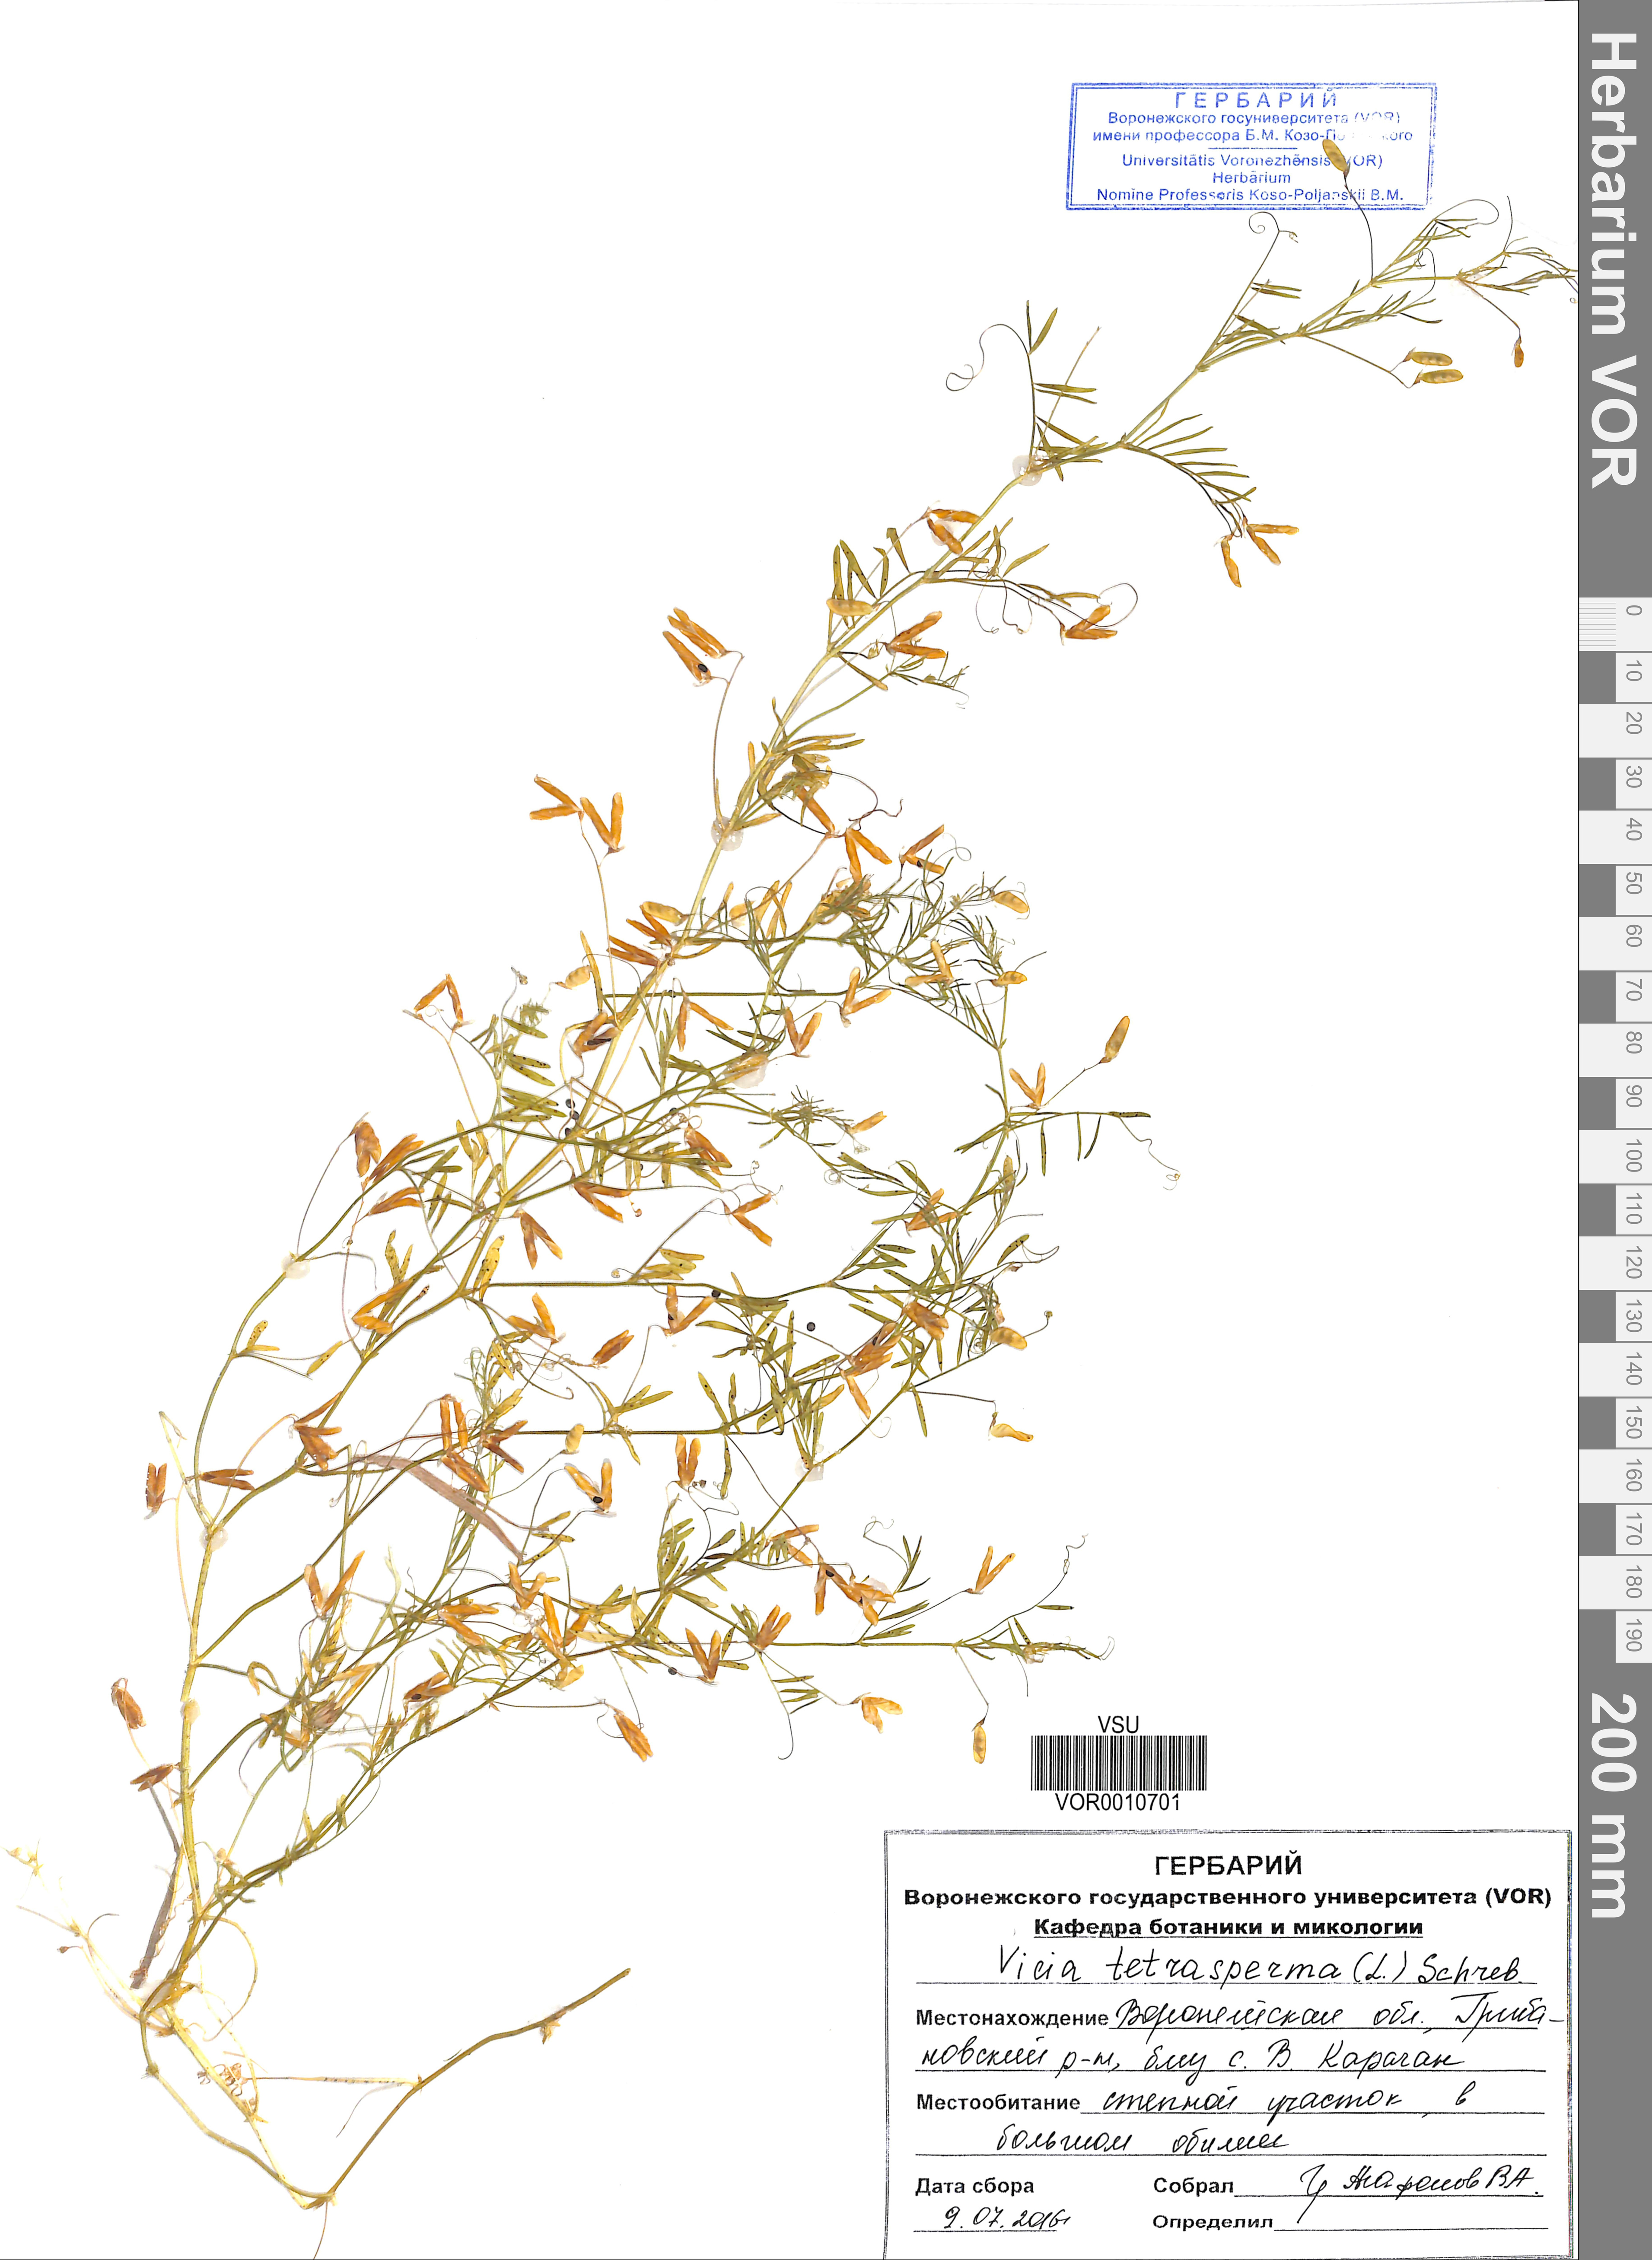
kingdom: Plantae
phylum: Tracheophyta
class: Magnoliopsida
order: Fabales
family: Fabaceae
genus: Vicia
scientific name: Vicia tetrasperma
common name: Smooth tare
